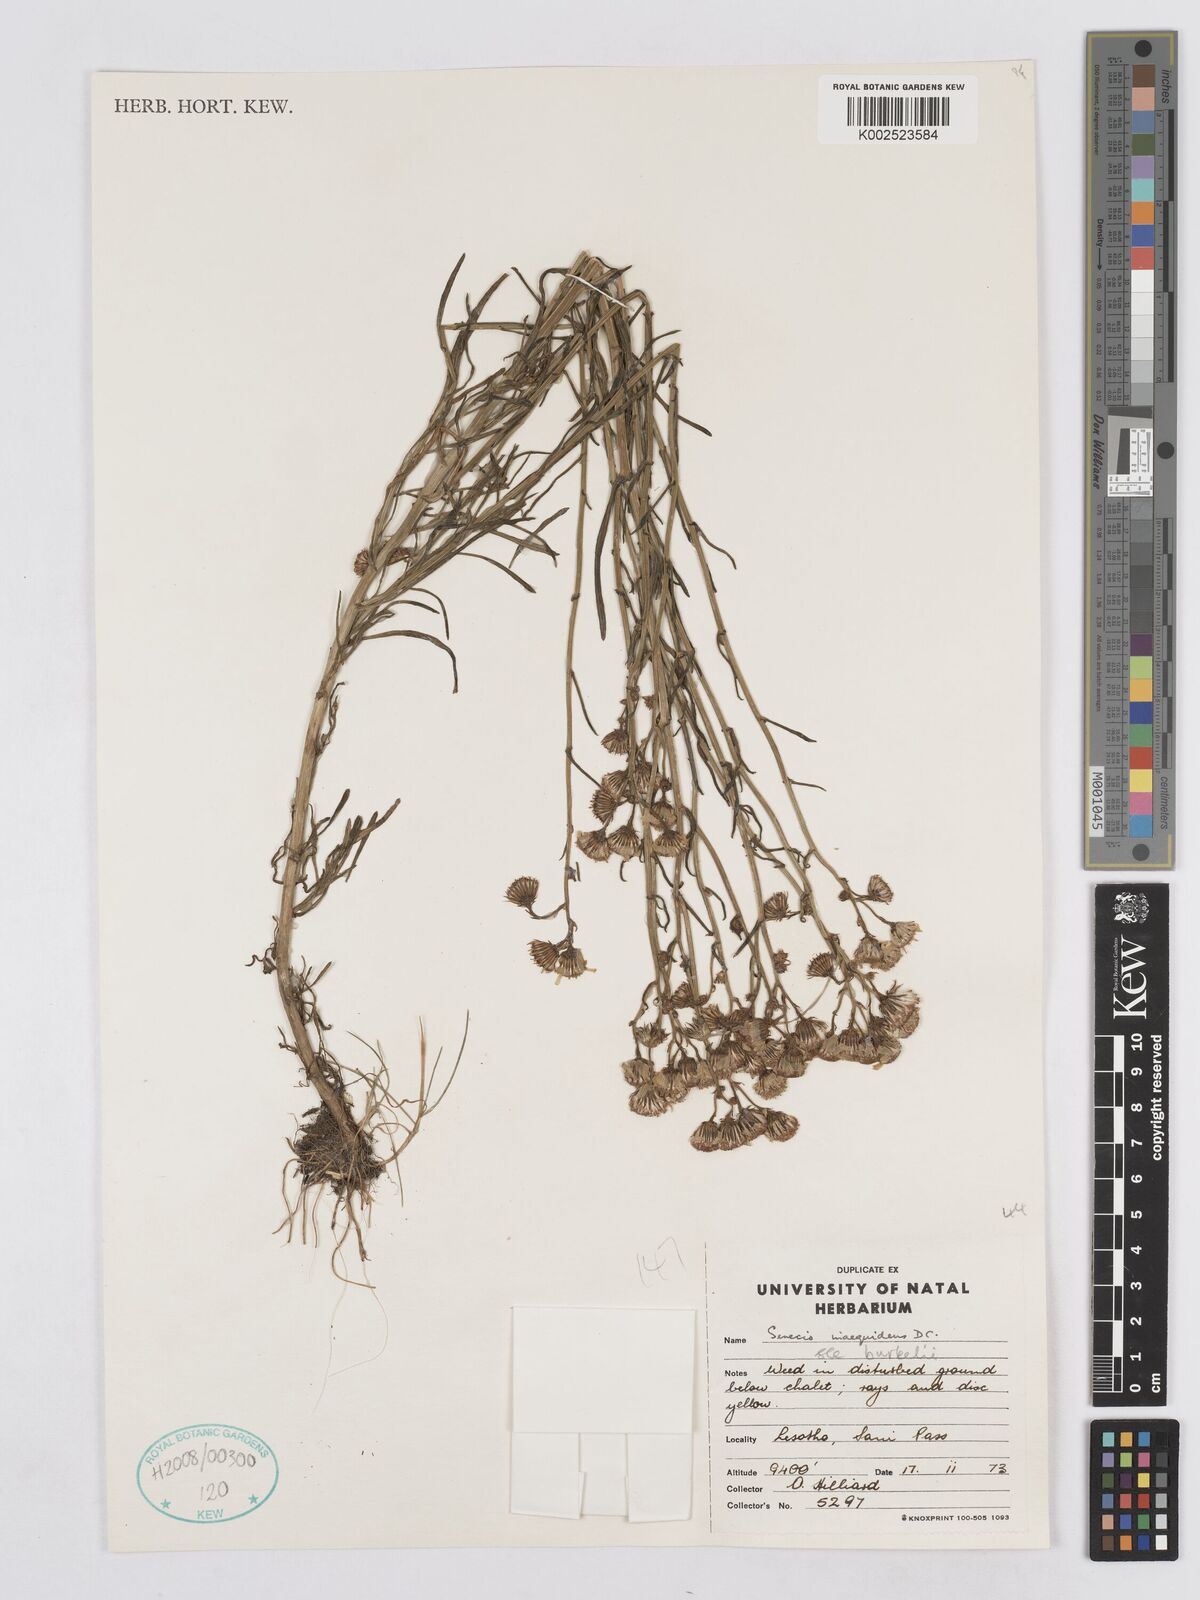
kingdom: Plantae
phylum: Tracheophyta
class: Magnoliopsida
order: Asterales
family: Asteraceae
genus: Senecio
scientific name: Senecio inaequidens
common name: Narrow-leaved ragwort
